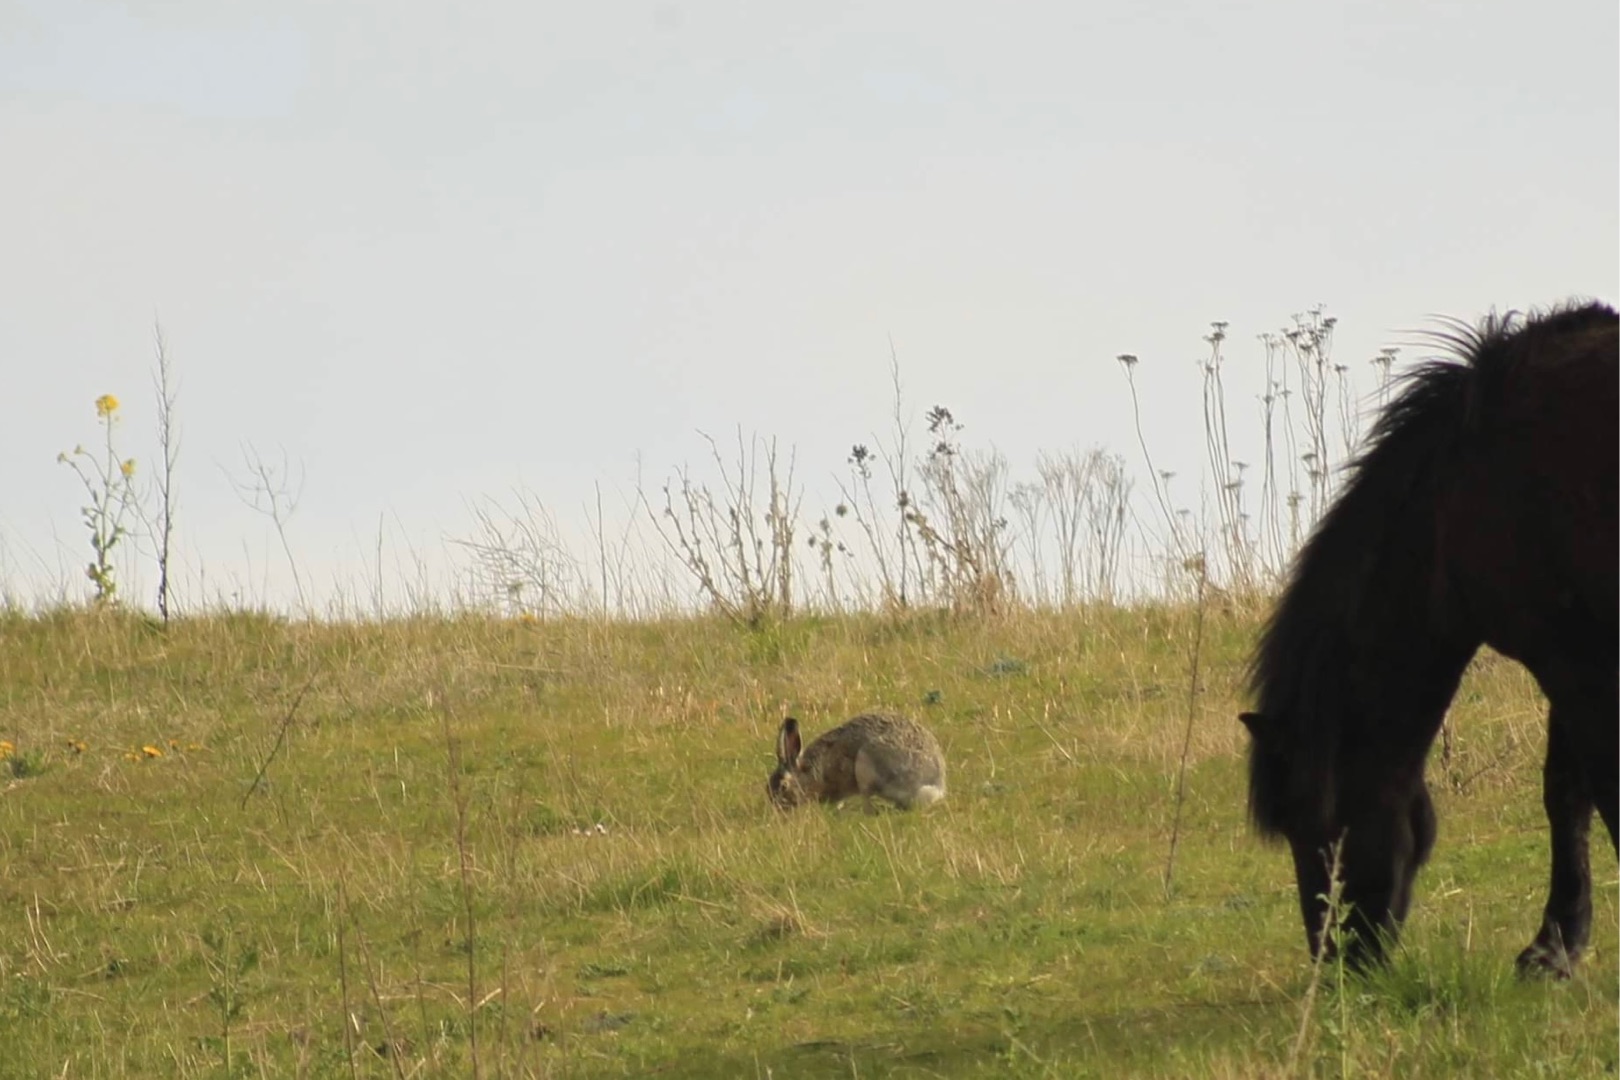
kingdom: Animalia
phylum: Chordata
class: Mammalia
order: Lagomorpha
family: Leporidae
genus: Lepus
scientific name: Lepus europaeus
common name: Hare
